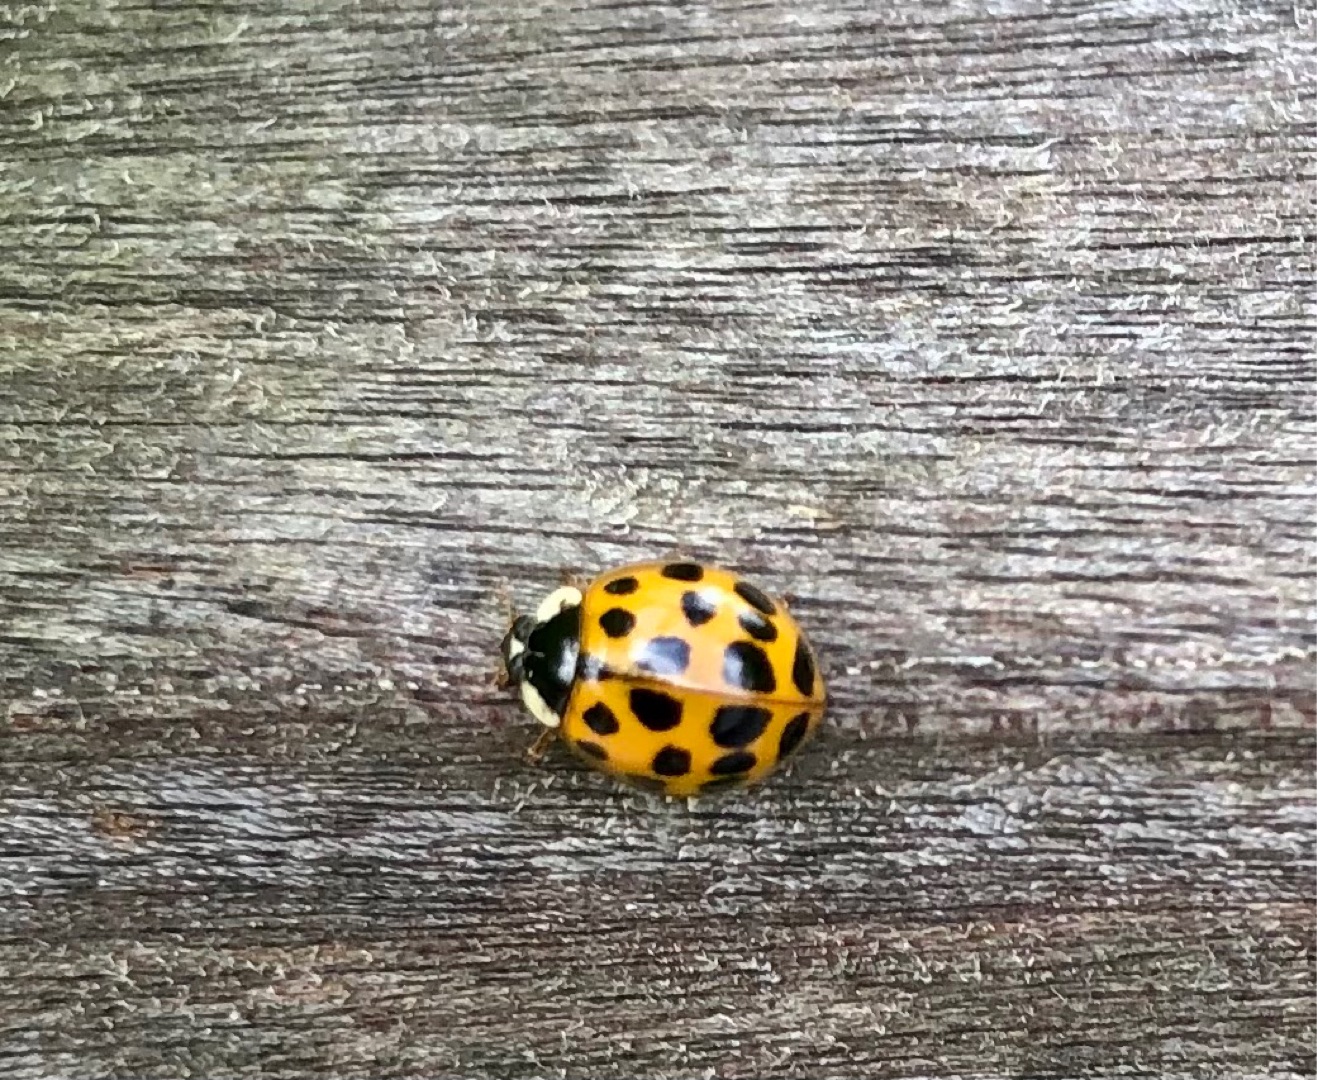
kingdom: Animalia
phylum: Arthropoda
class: Insecta
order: Coleoptera
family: Coccinellidae
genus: Harmonia
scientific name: Harmonia axyridis
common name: Harlekinmariehøne
